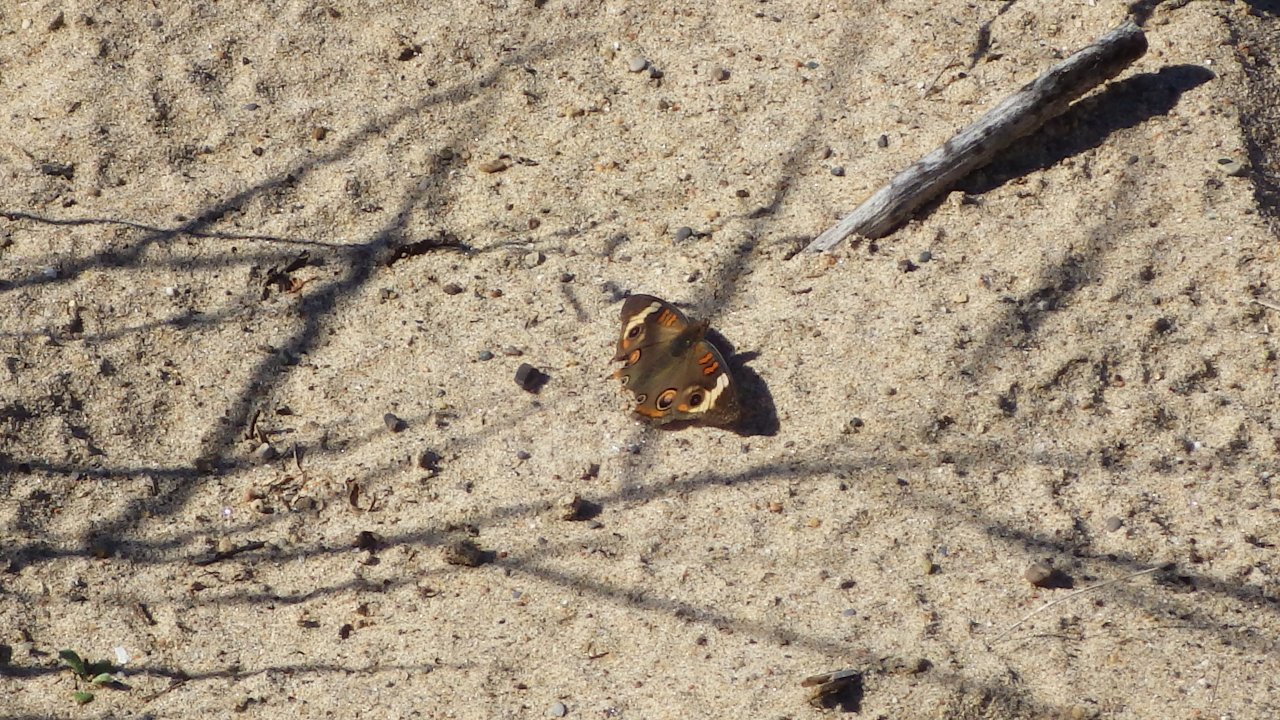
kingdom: Animalia
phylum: Arthropoda
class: Insecta
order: Lepidoptera
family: Nymphalidae
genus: Junonia
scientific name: Junonia coenia
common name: Common Buckeye
